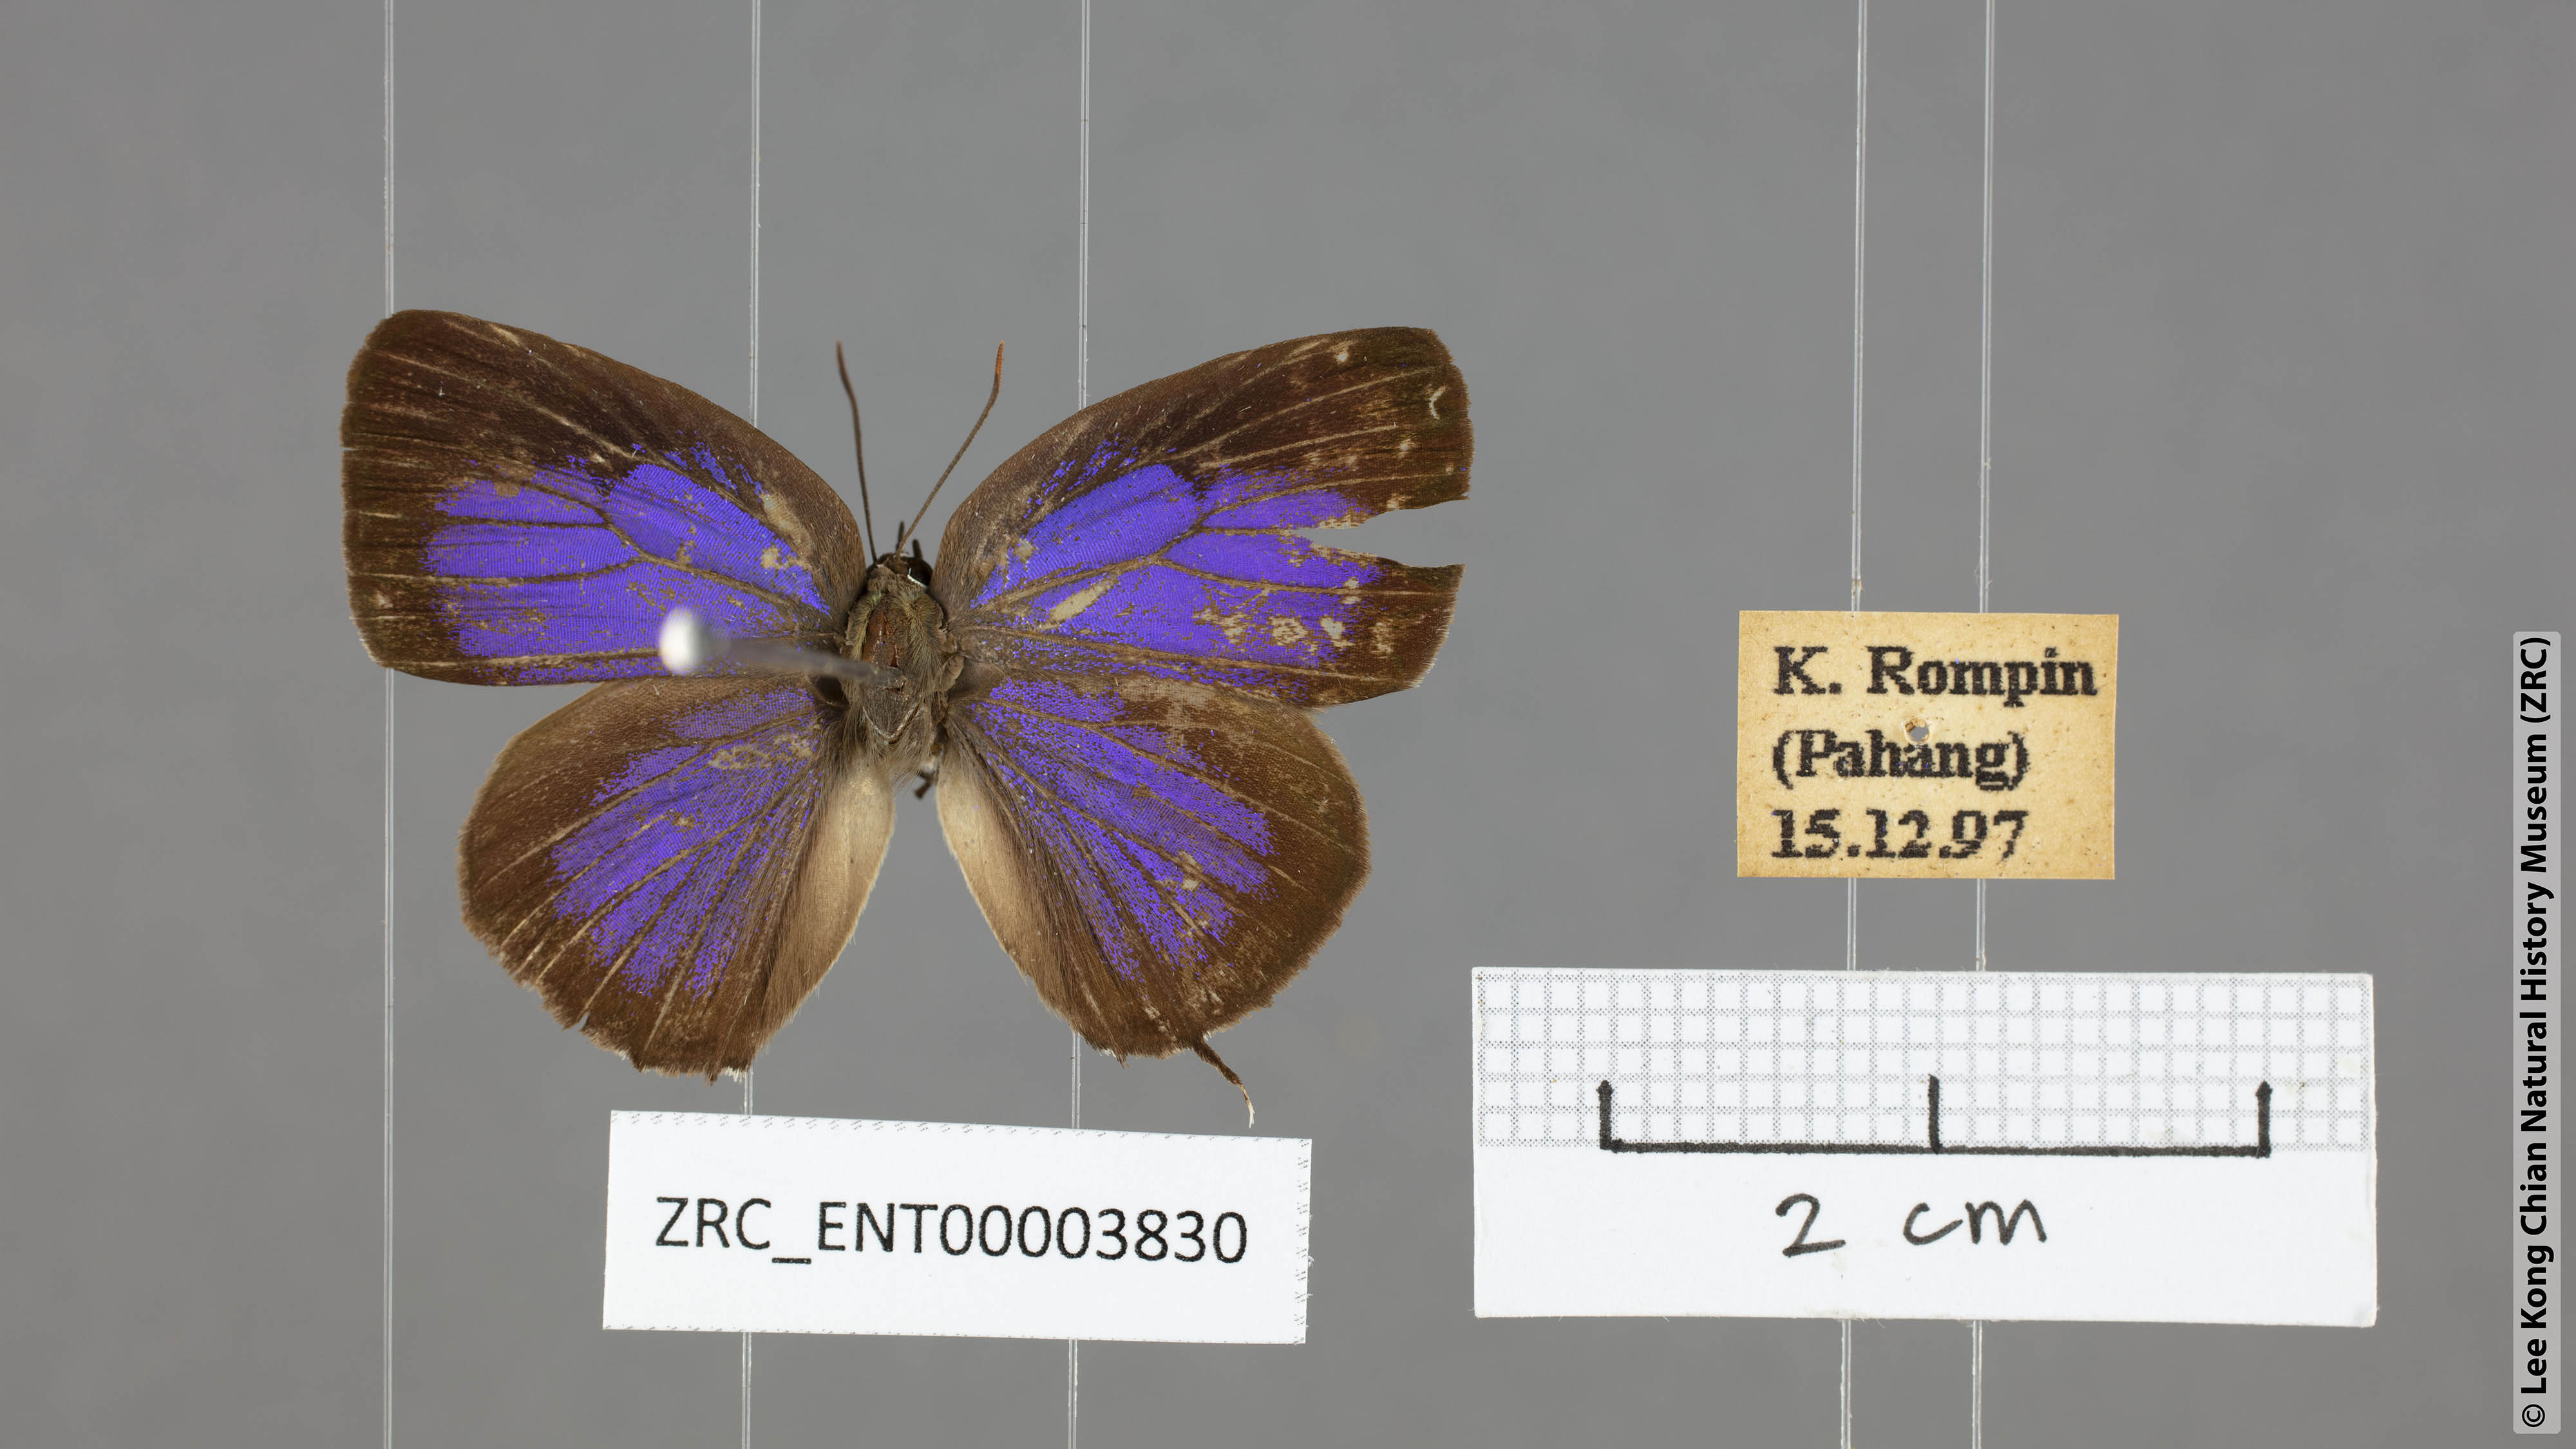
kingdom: Animalia
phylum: Arthropoda
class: Insecta
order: Lepidoptera
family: Lycaenidae
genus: Arhopala
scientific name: Arhopala alitaeus
